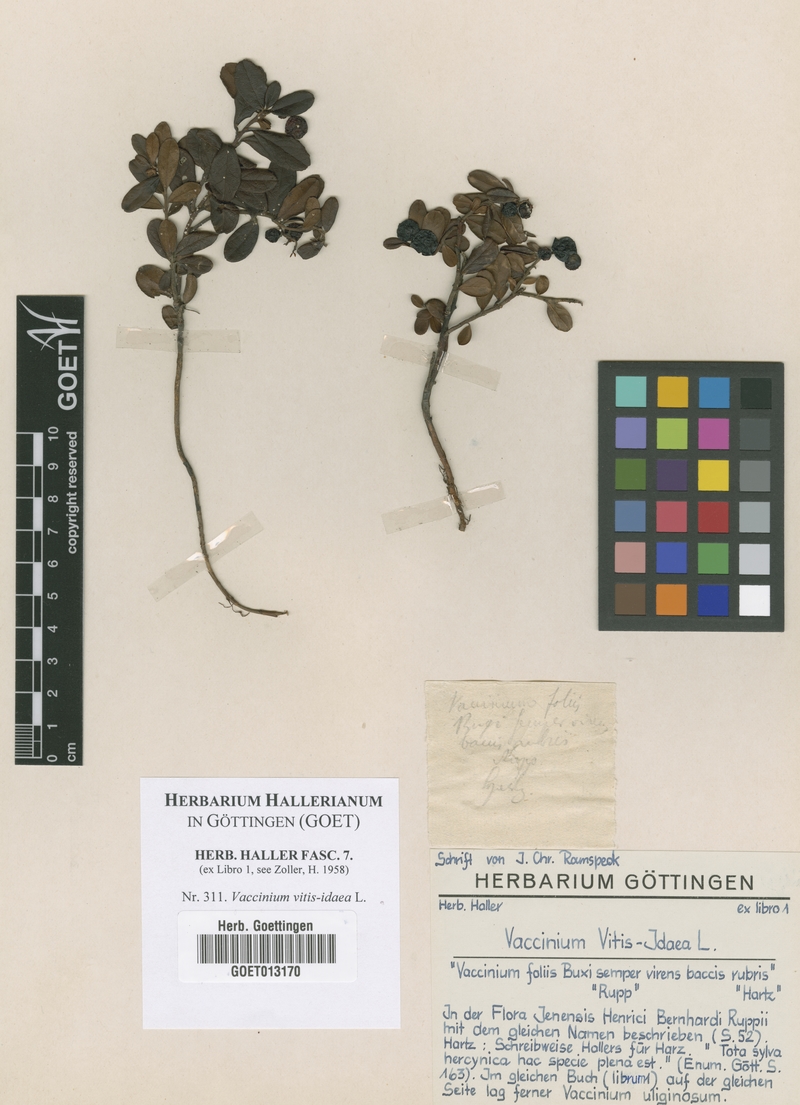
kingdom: Plantae
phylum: Tracheophyta
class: Magnoliopsida
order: Ericales
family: Ericaceae
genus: Vaccinium
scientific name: Vaccinium vitis-idaea
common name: Cowberry
